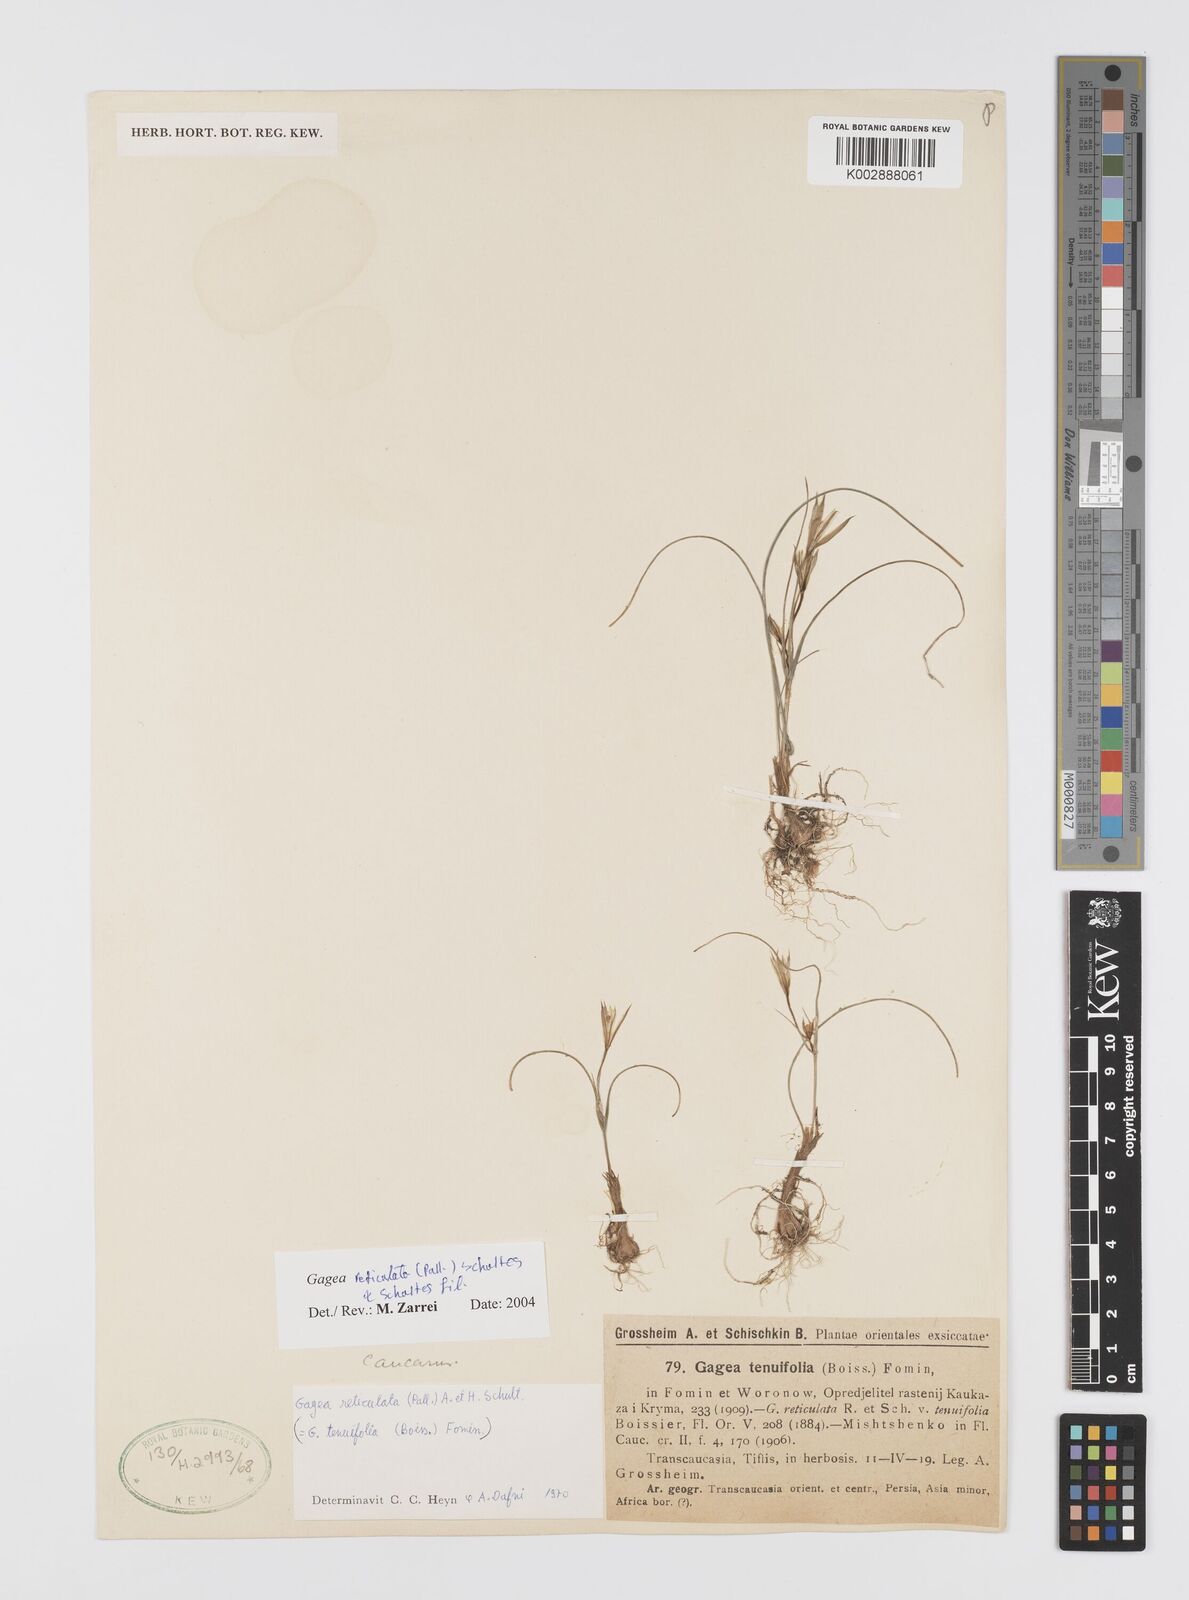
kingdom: Plantae
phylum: Tracheophyta
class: Liliopsida
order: Liliales
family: Liliaceae
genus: Gagea
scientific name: Gagea reticulata
